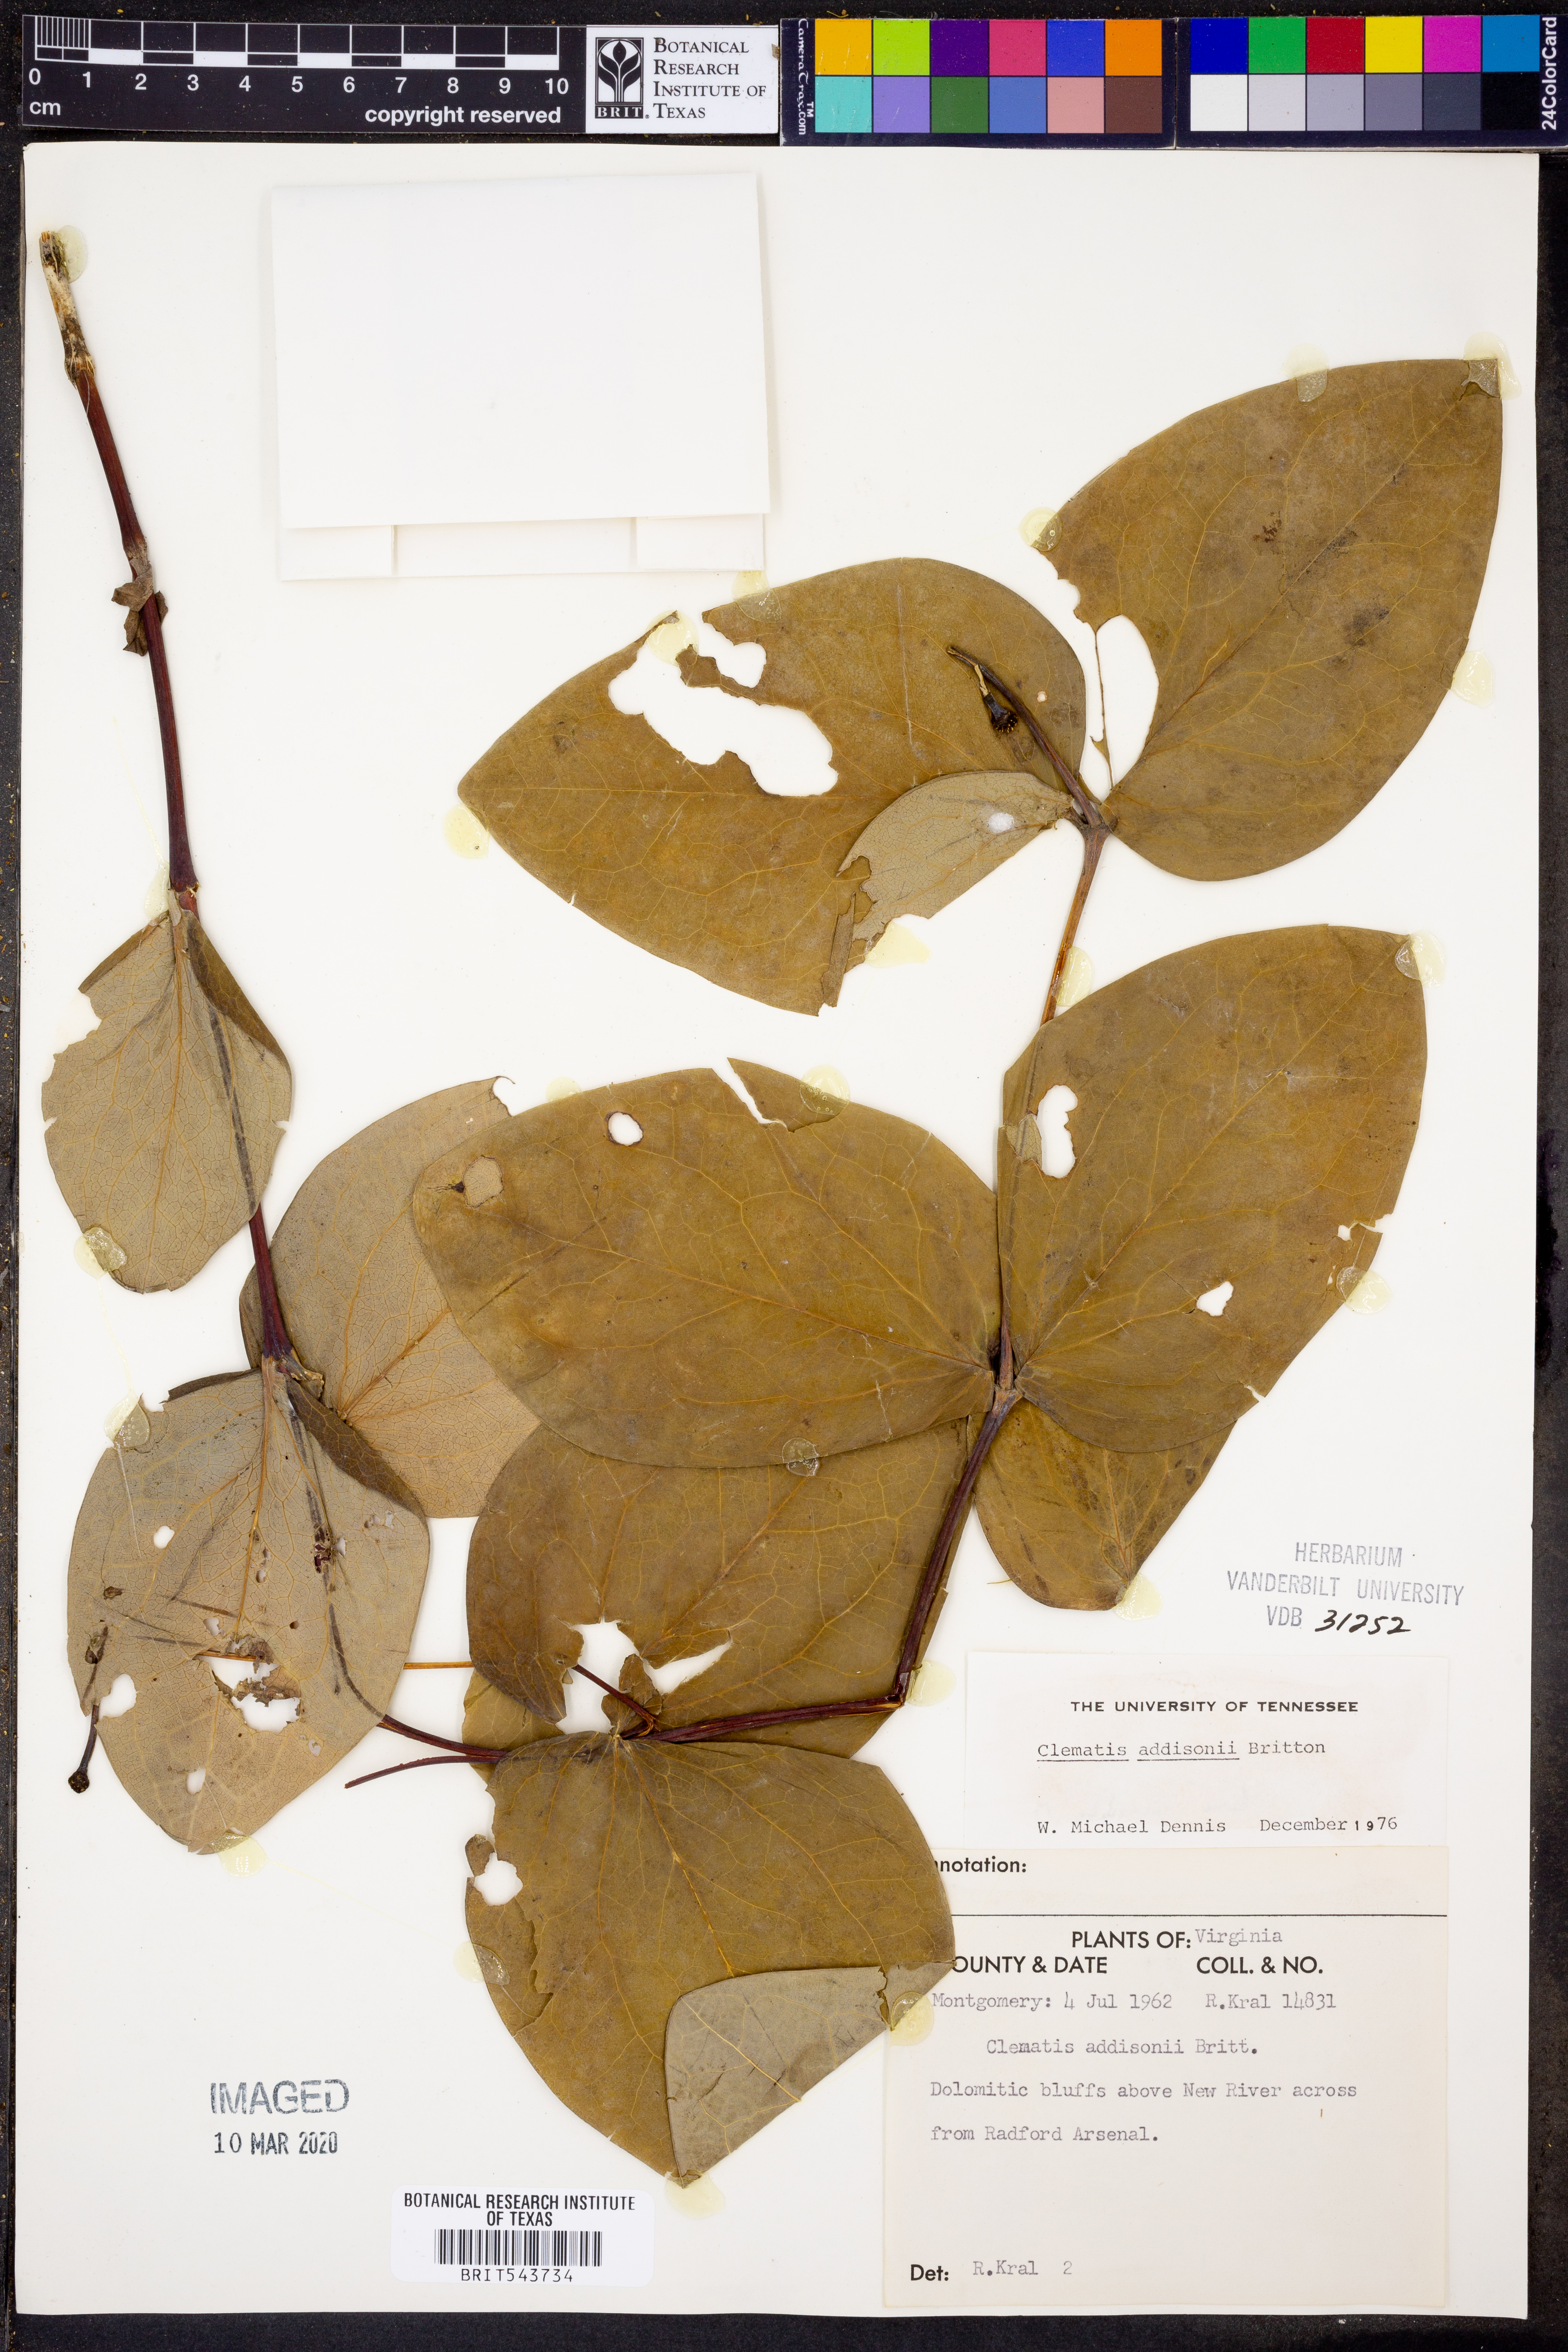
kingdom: Plantae
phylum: Tracheophyta
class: Magnoliopsida
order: Ranunculales
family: Ranunculaceae
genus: Clematis
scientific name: Clematis addisonii
